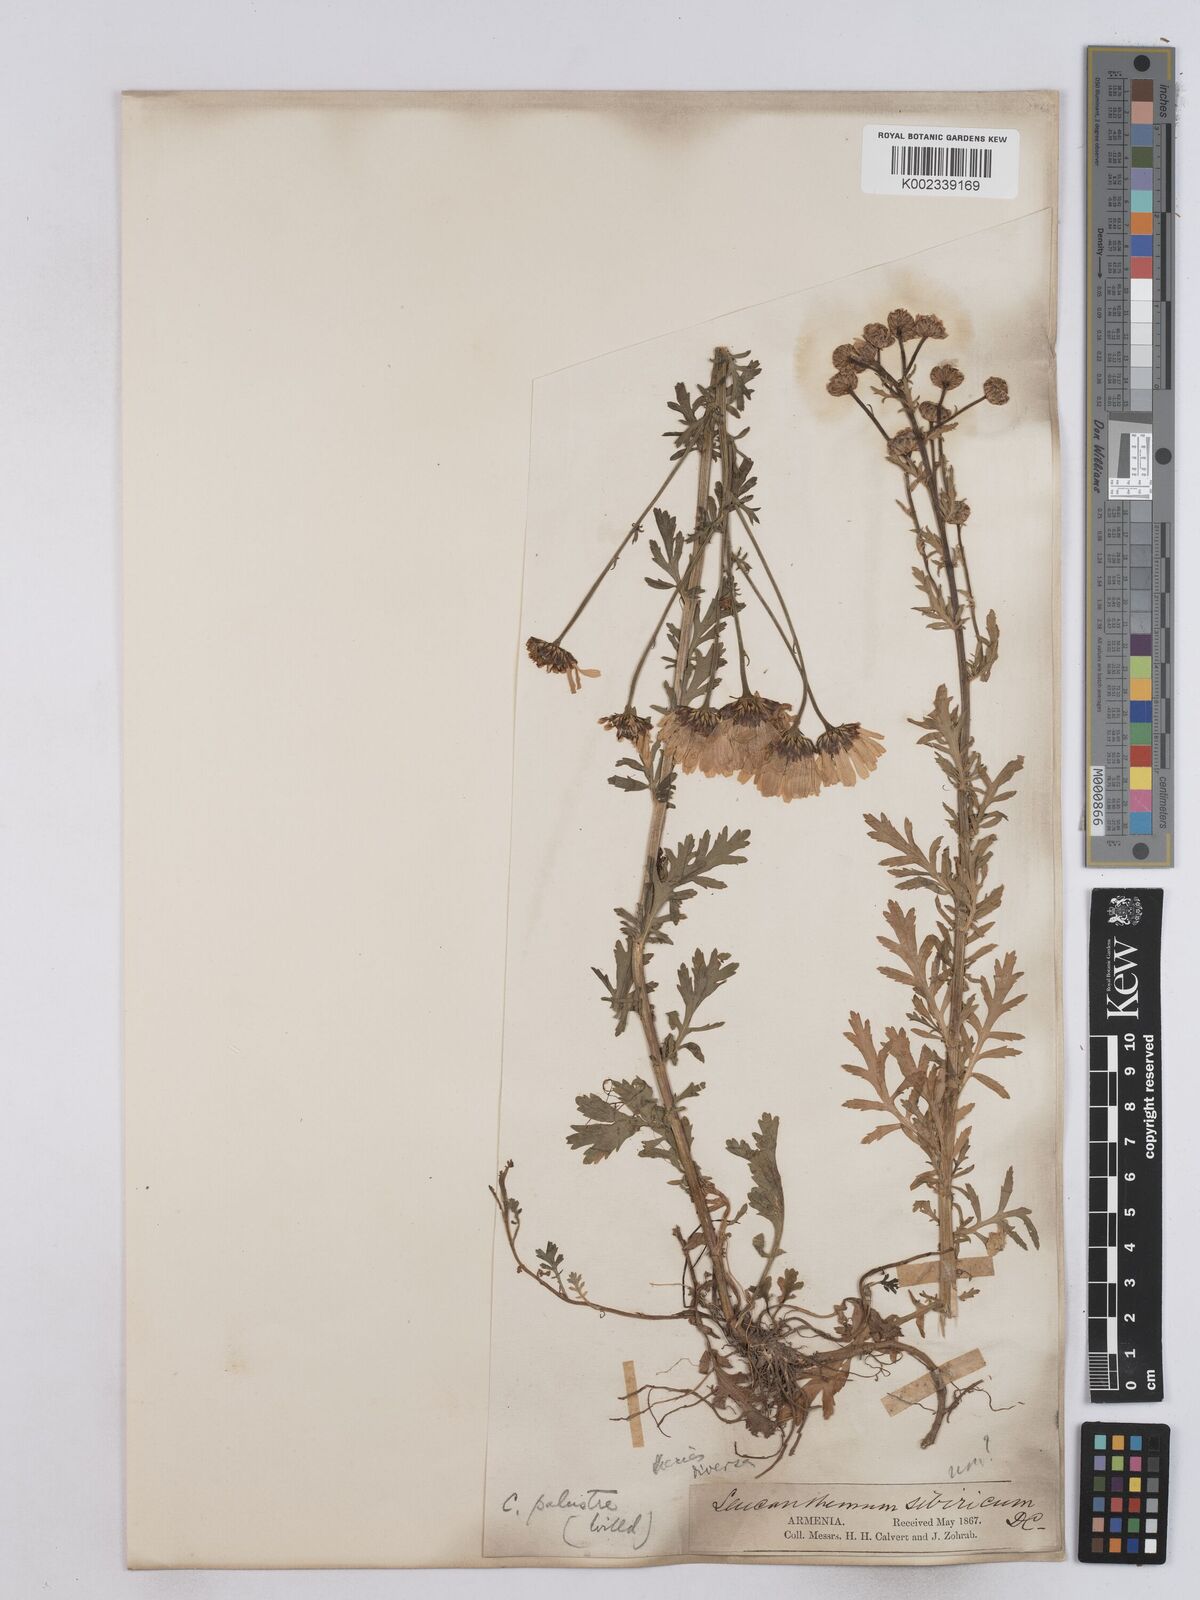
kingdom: Plantae
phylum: Tracheophyta
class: Magnoliopsida
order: Asterales
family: Asteraceae
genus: Tanacetum
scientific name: Tanacetum punctatum
